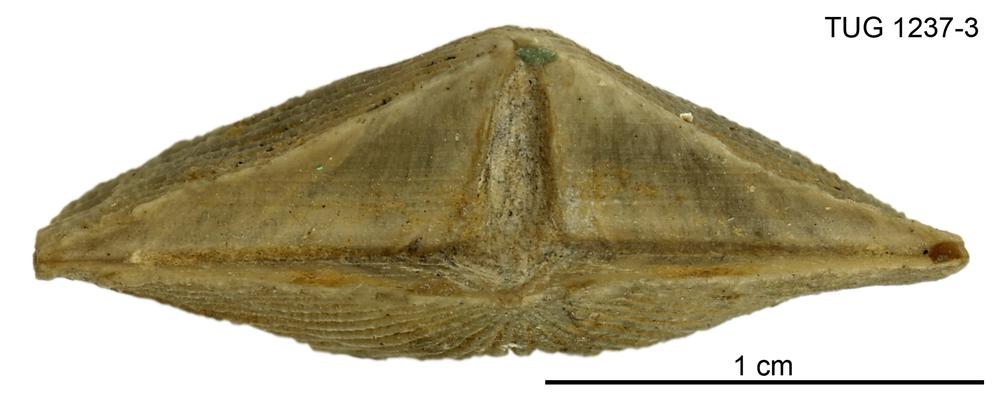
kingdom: Animalia
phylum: Brachiopoda
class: Rhynchonellata
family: Dolerorthidae
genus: Hesperorthis
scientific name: Hesperorthis mucronata
